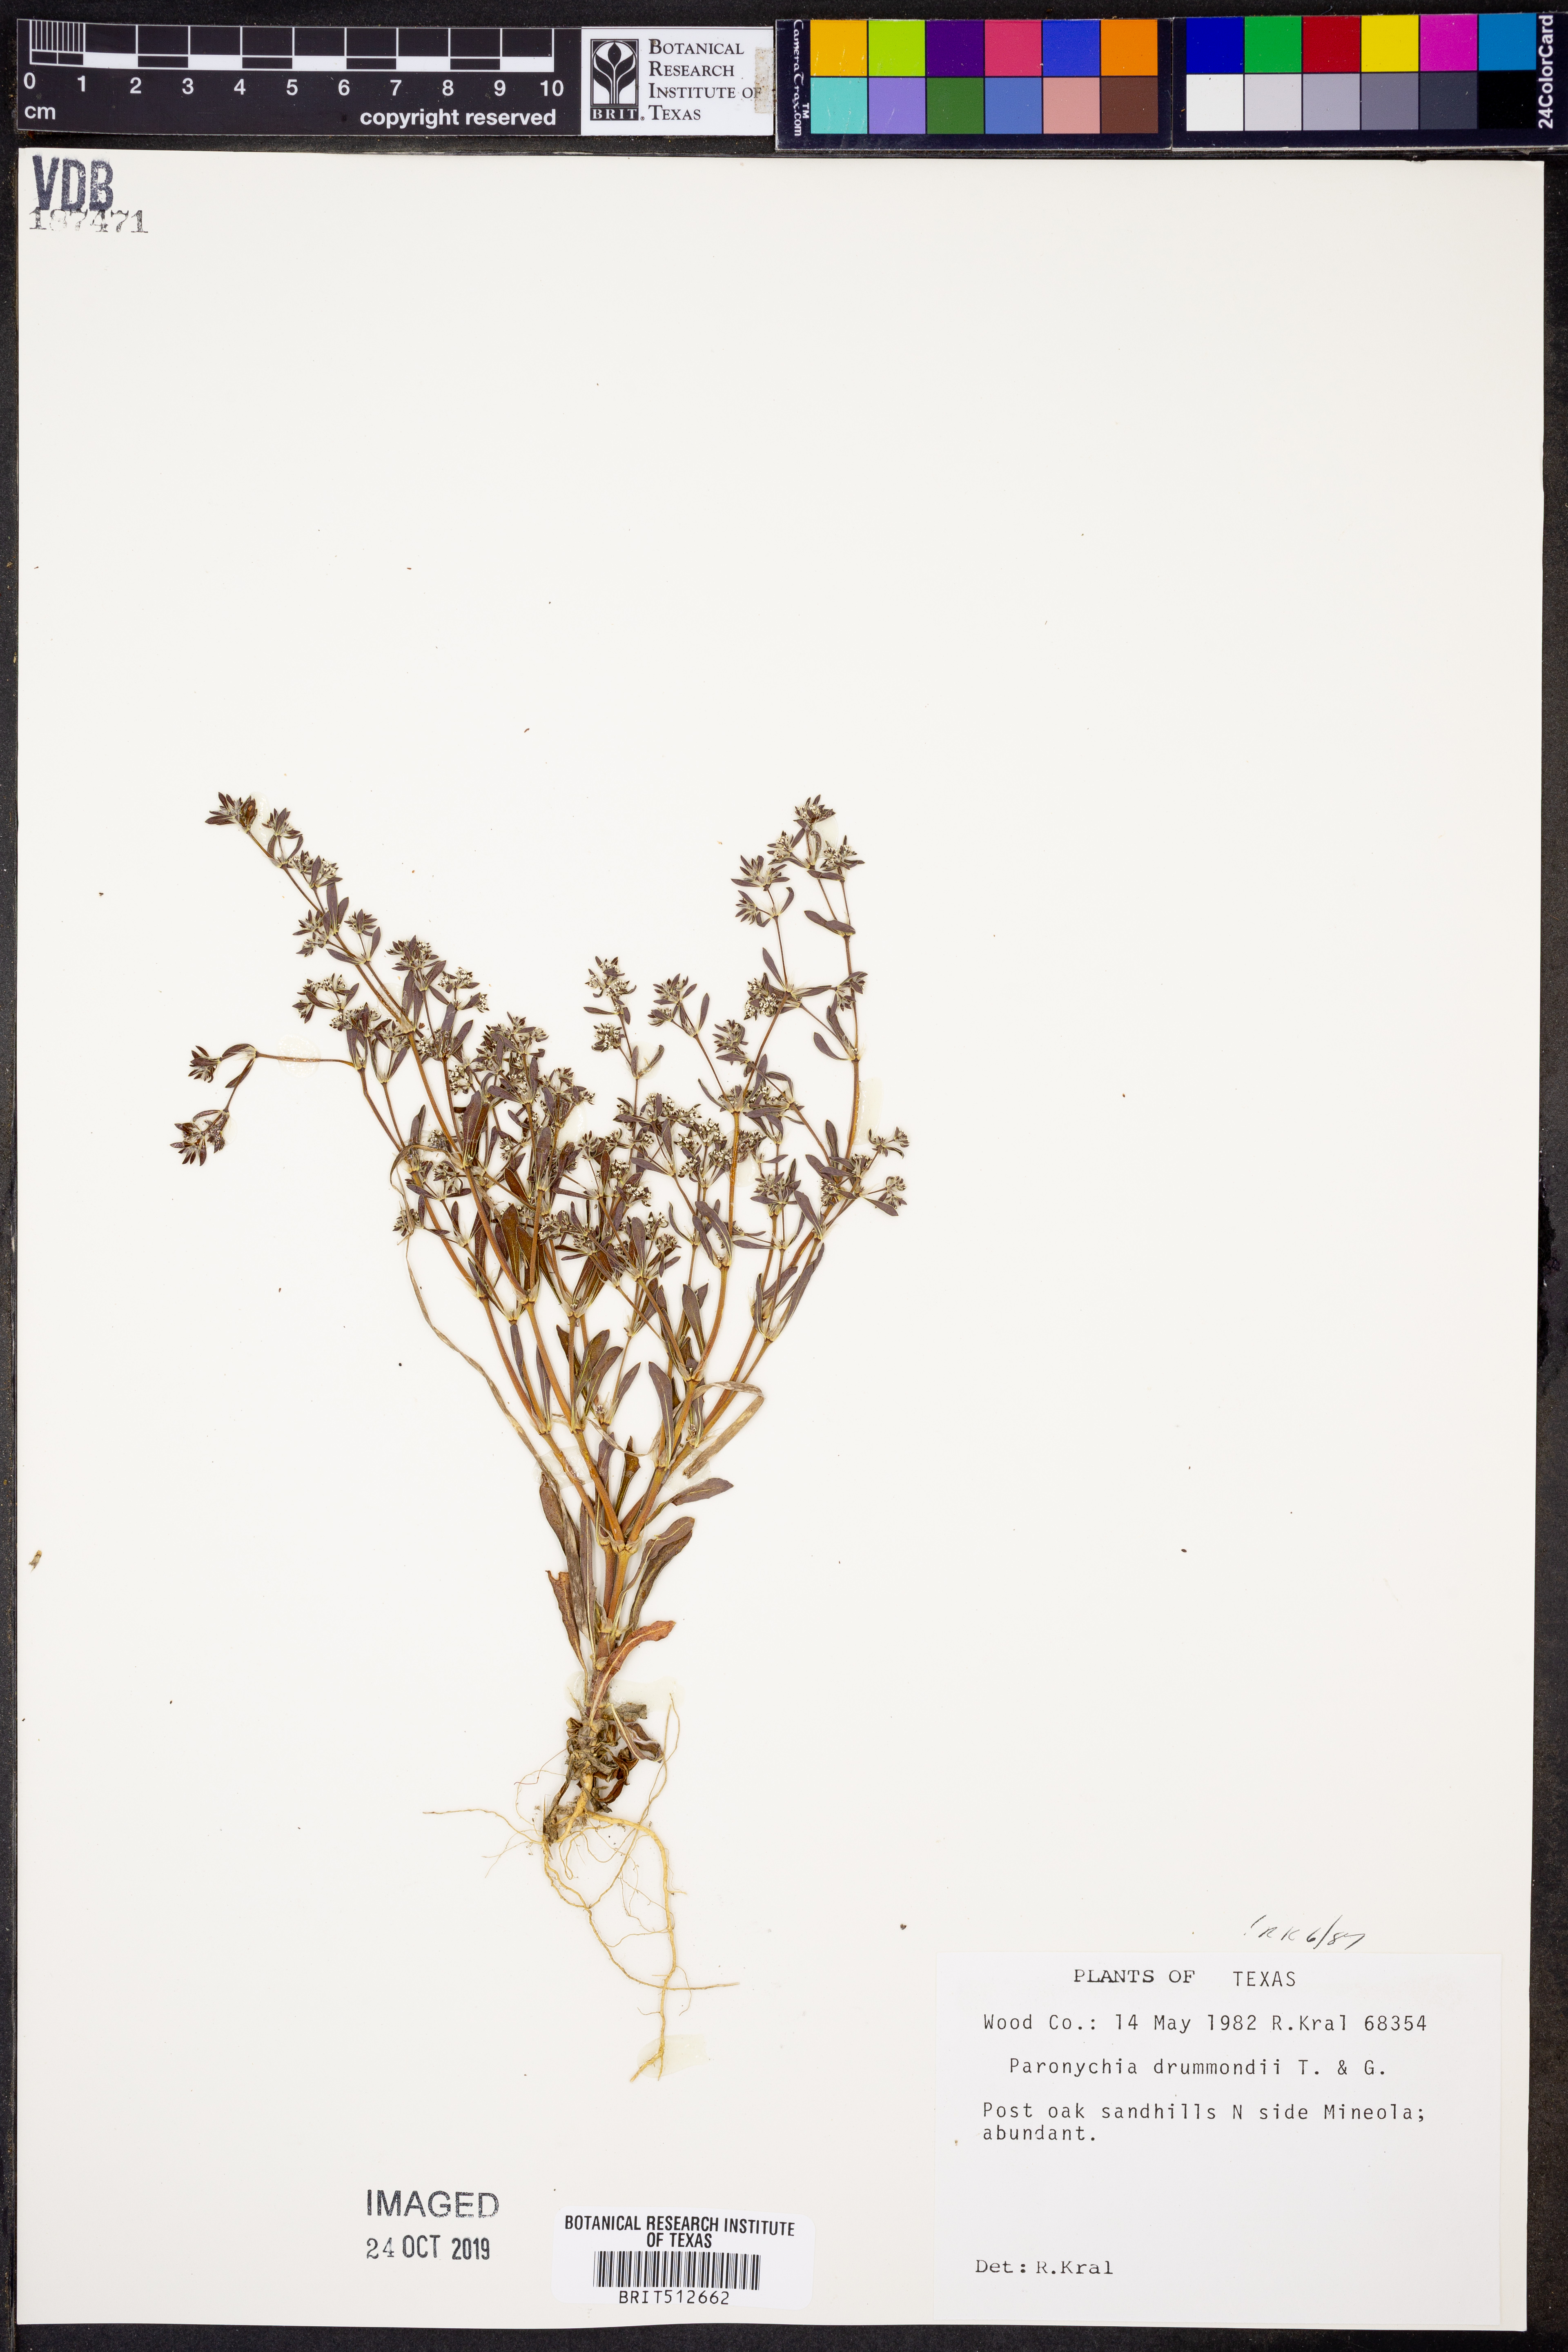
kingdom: Plantae
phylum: Tracheophyta
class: Magnoliopsida
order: Caryophyllales
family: Caryophyllaceae
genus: Paronychia
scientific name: Paronychia drummondii
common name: Drummond's nailwort
